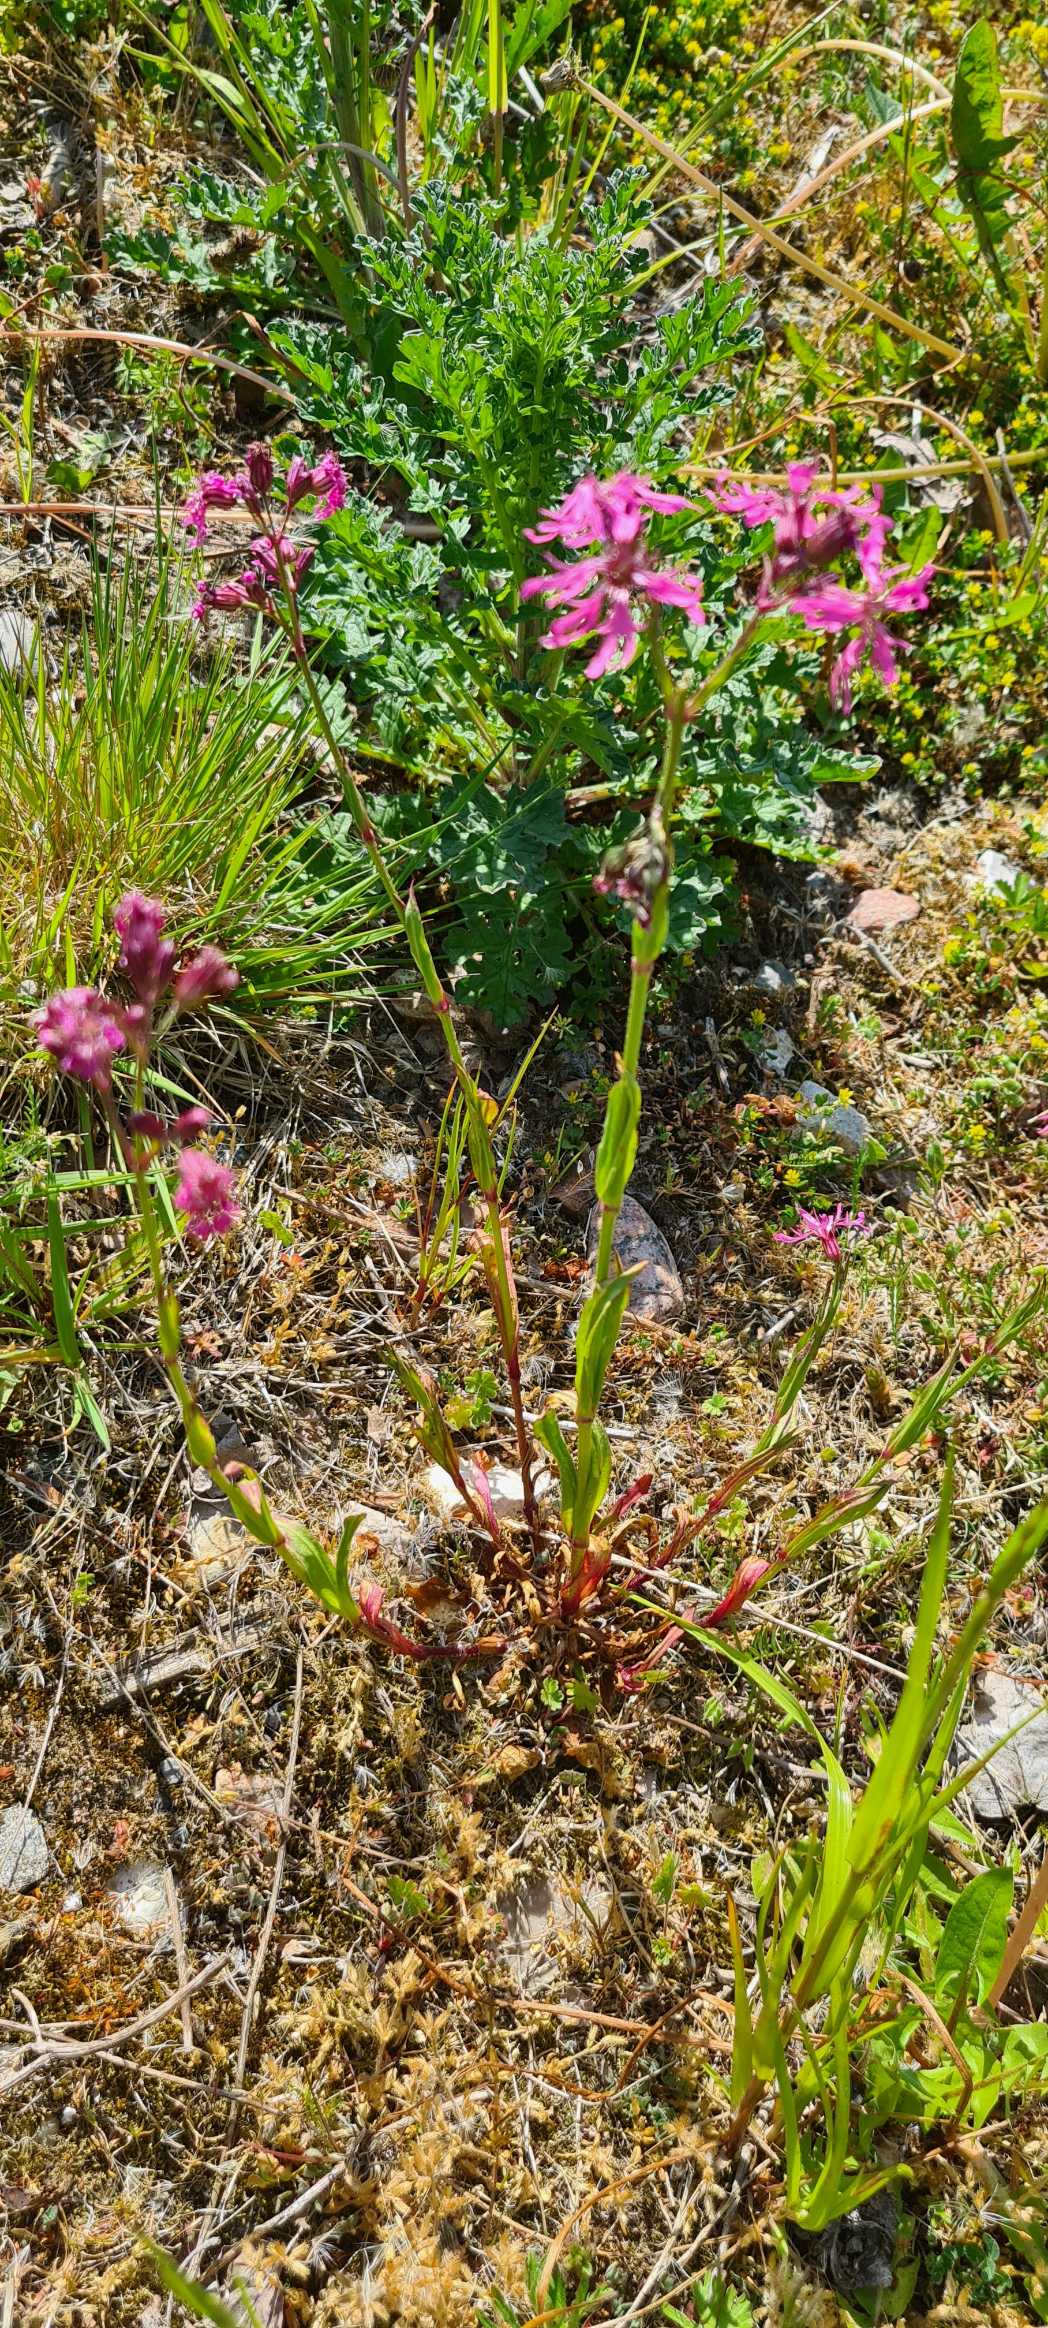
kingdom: Plantae
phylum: Tracheophyta
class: Magnoliopsida
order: Caryophyllales
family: Caryophyllaceae
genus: Silene
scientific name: Silene flos-cuculi
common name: Trævlekrone
